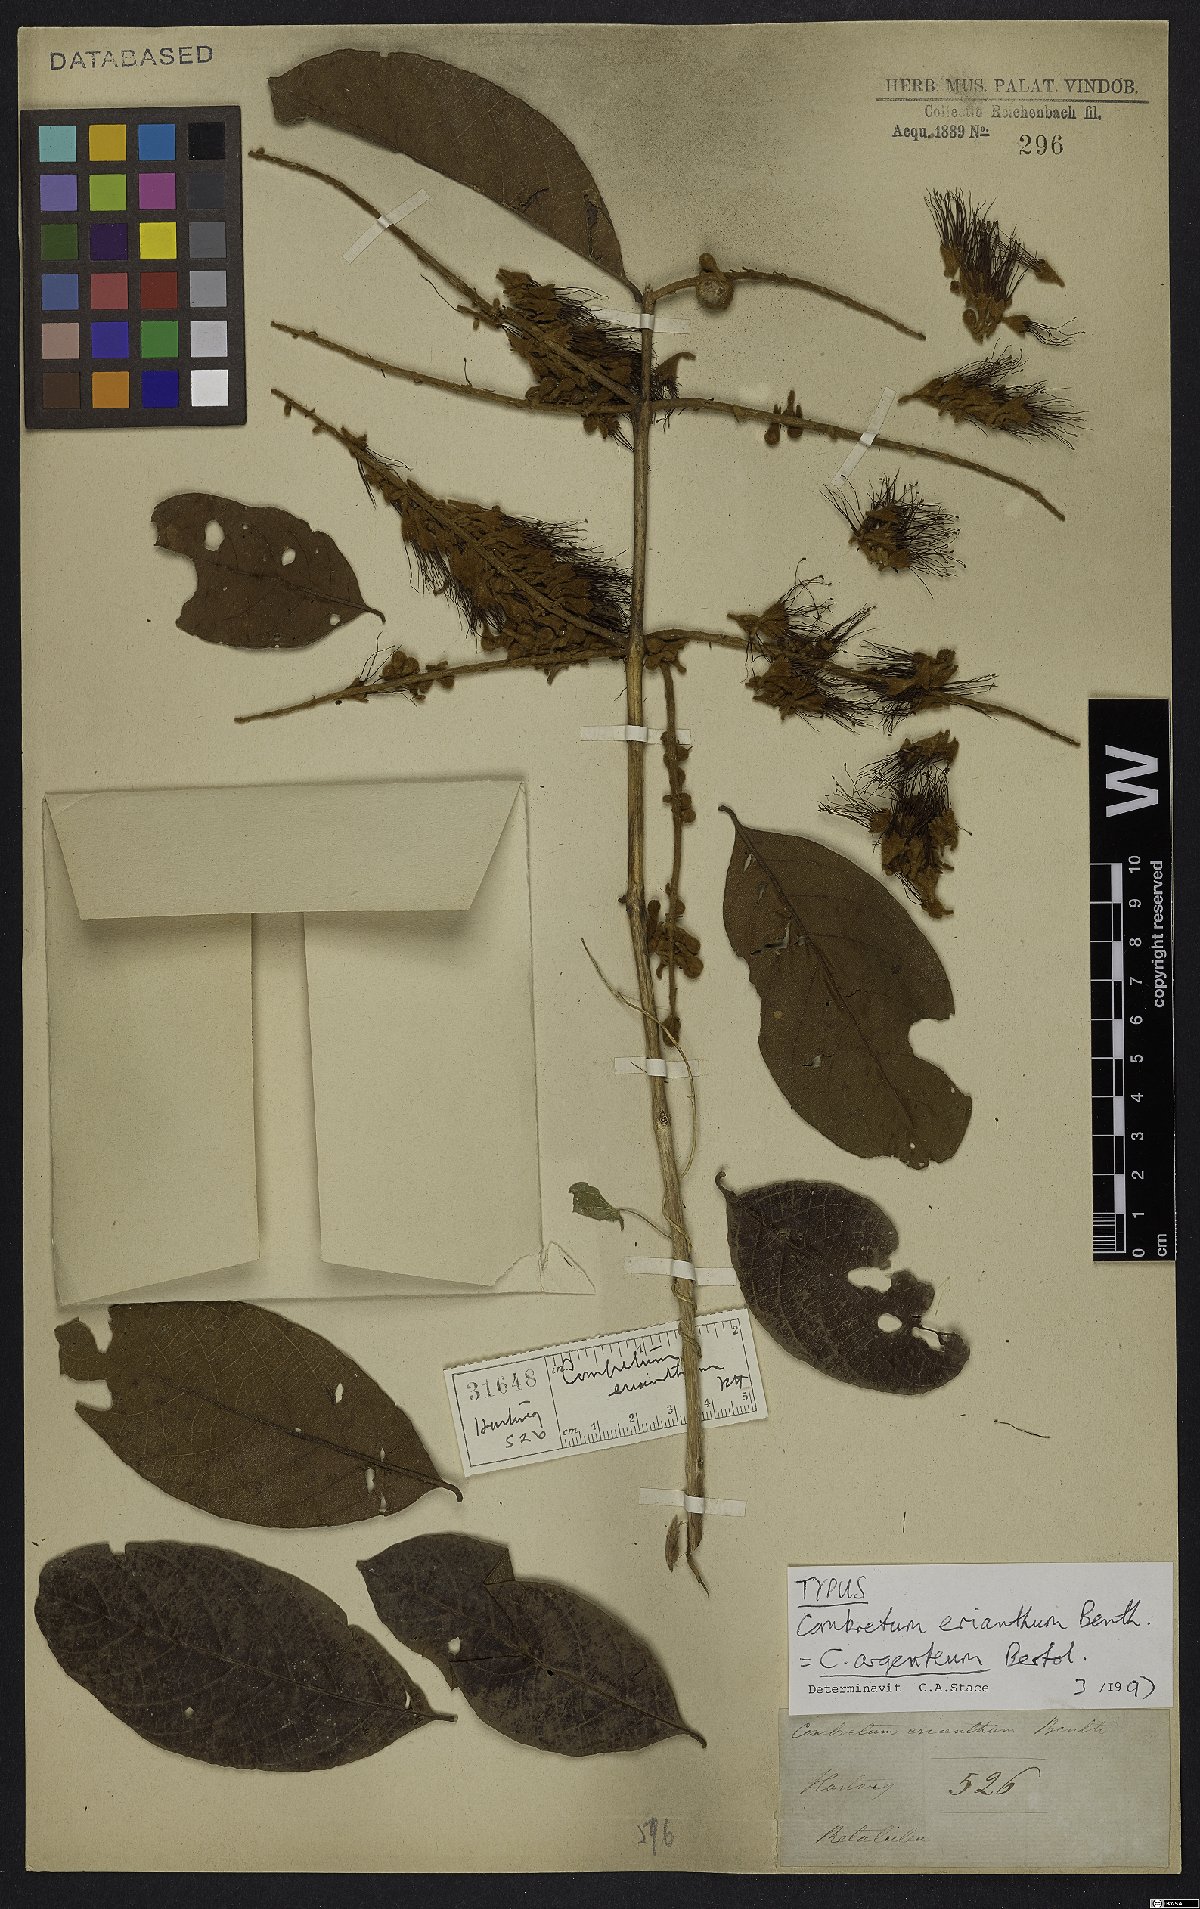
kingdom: Plantae
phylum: Tracheophyta
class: Magnoliopsida
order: Myrtales
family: Combretaceae
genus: Combretum
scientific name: Combretum argenteum
